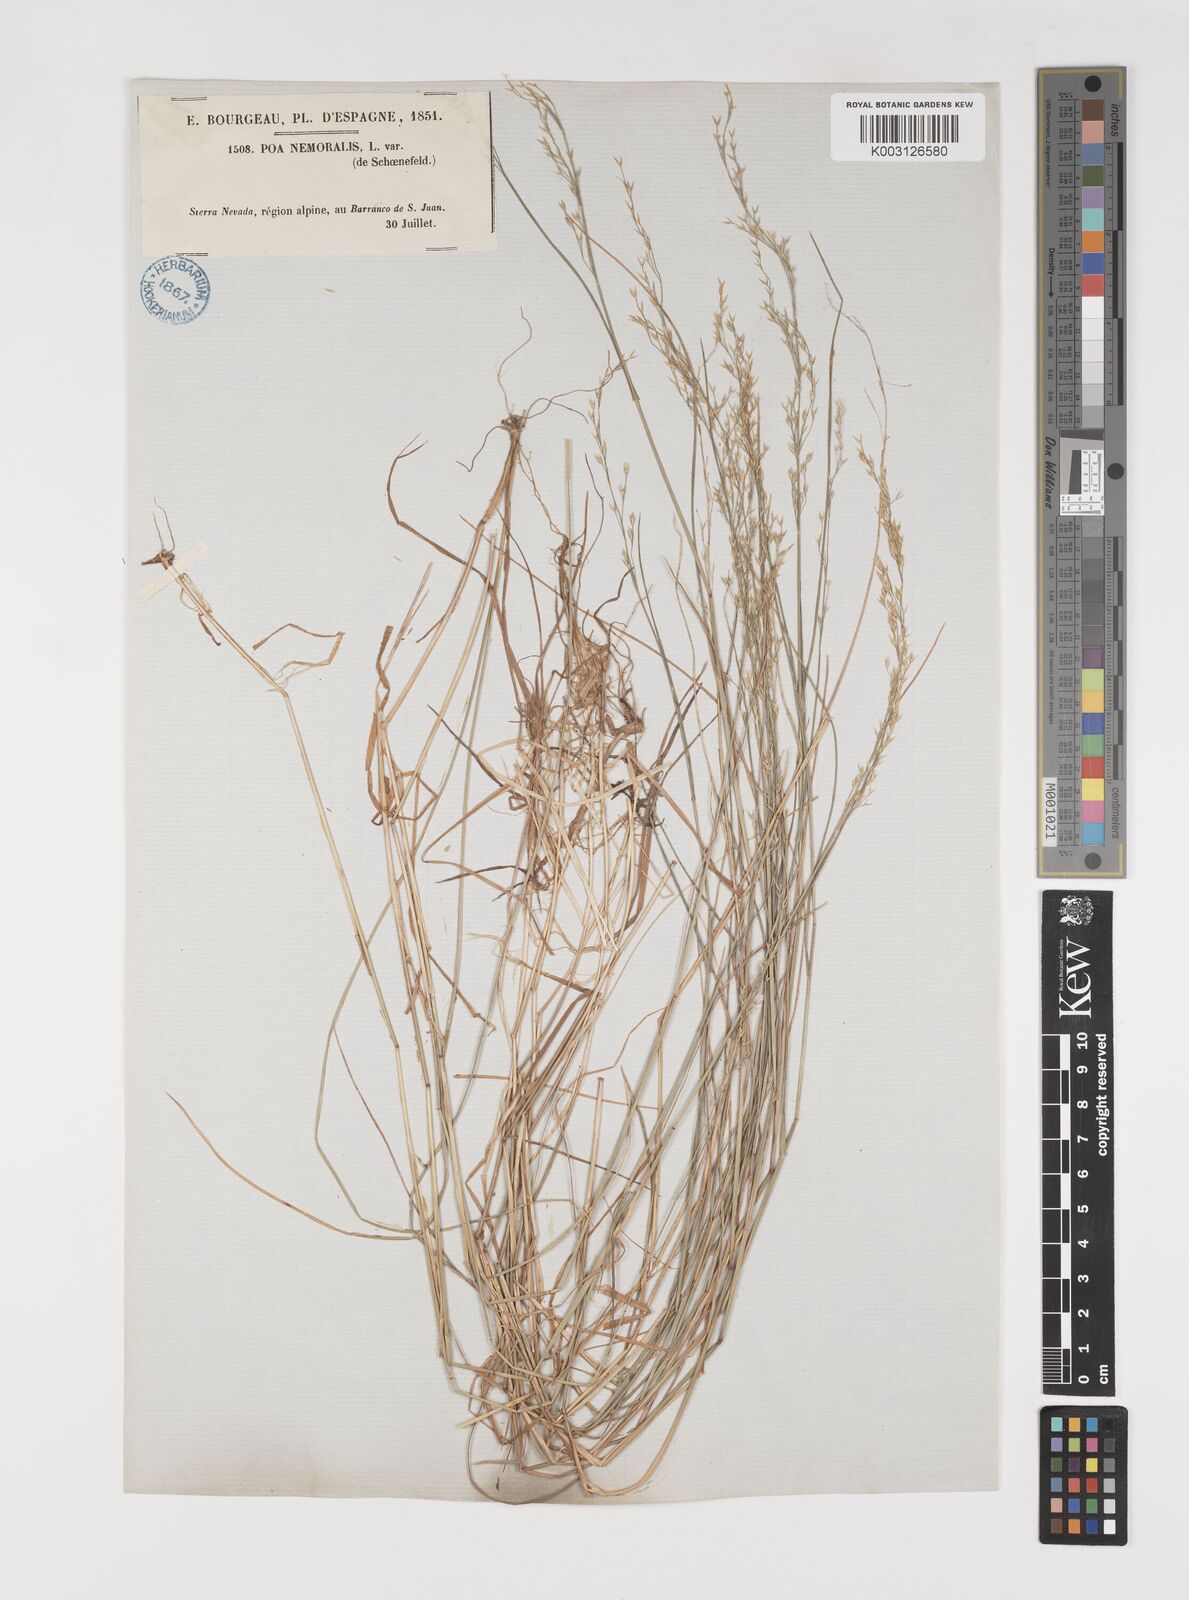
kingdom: Plantae
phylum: Tracheophyta
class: Liliopsida
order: Poales
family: Poaceae
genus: Poa
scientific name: Poa nemoralis
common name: Wood bluegrass
